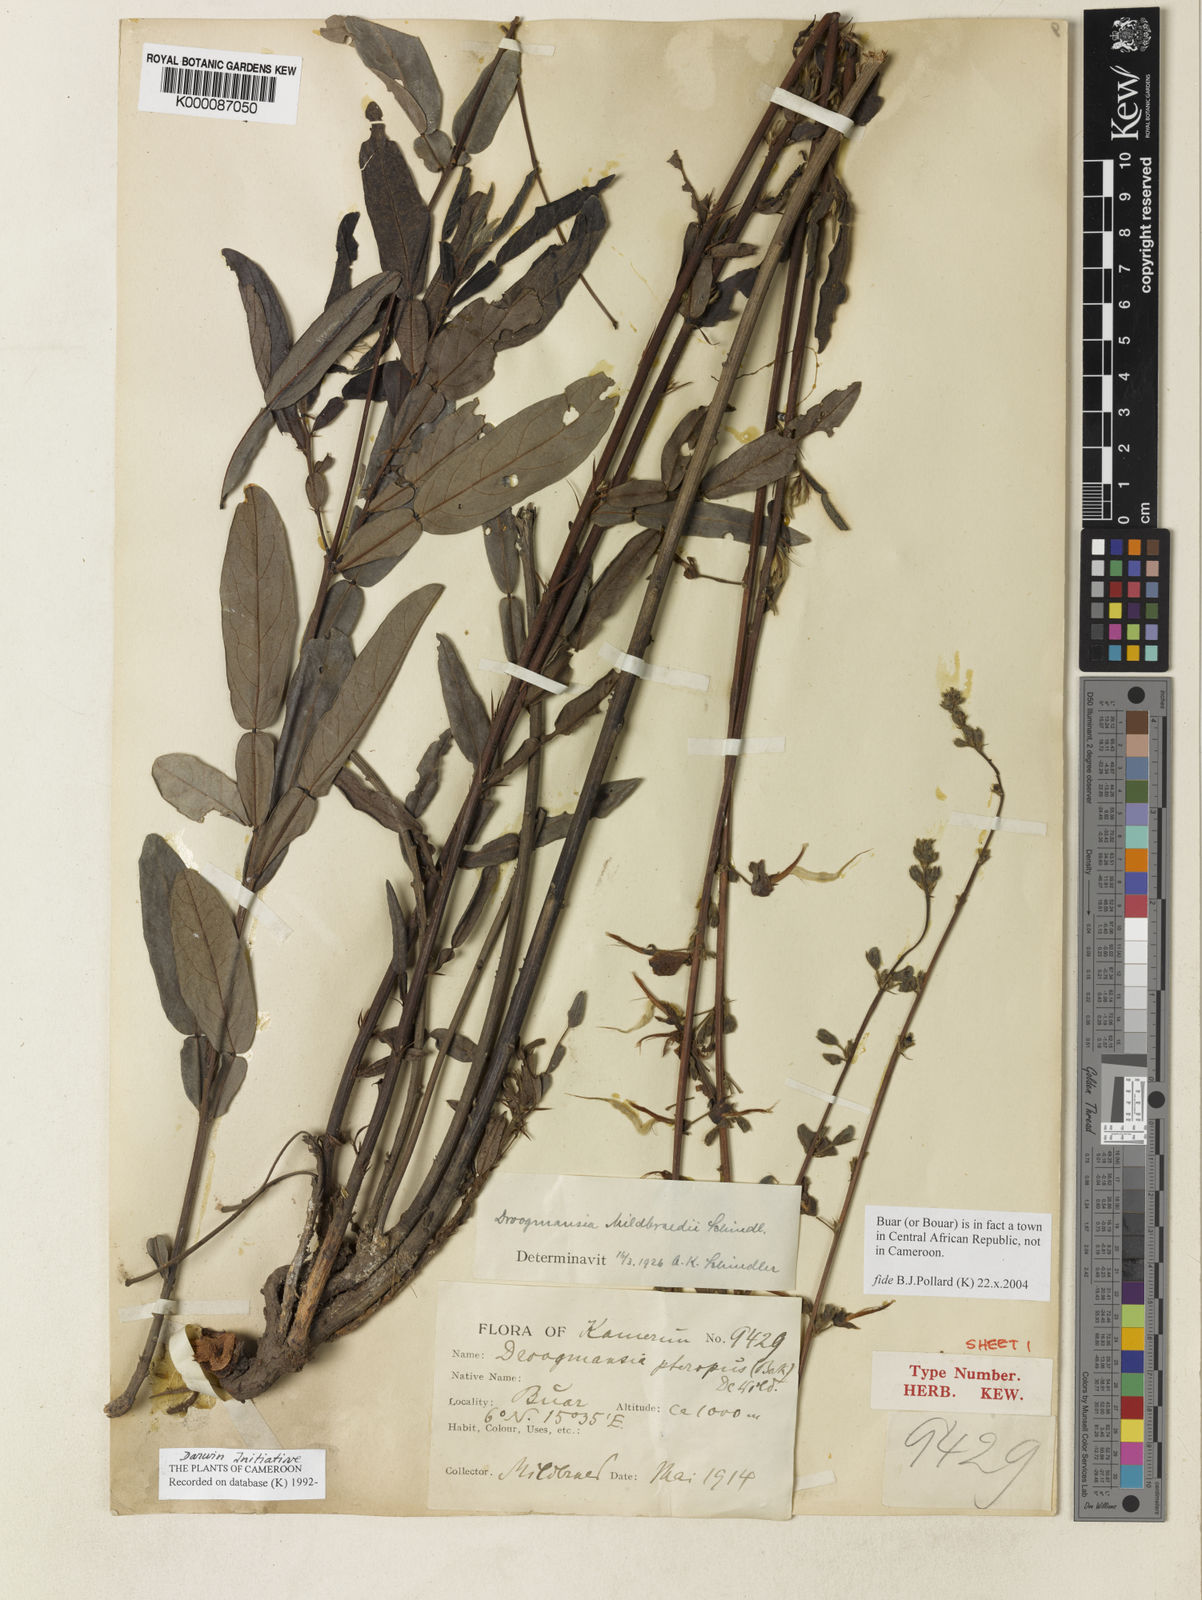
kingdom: Plantae
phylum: Tracheophyta
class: Magnoliopsida
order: Fabales
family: Fabaceae
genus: Droogmansia
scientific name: Droogmansia mildbraedii
